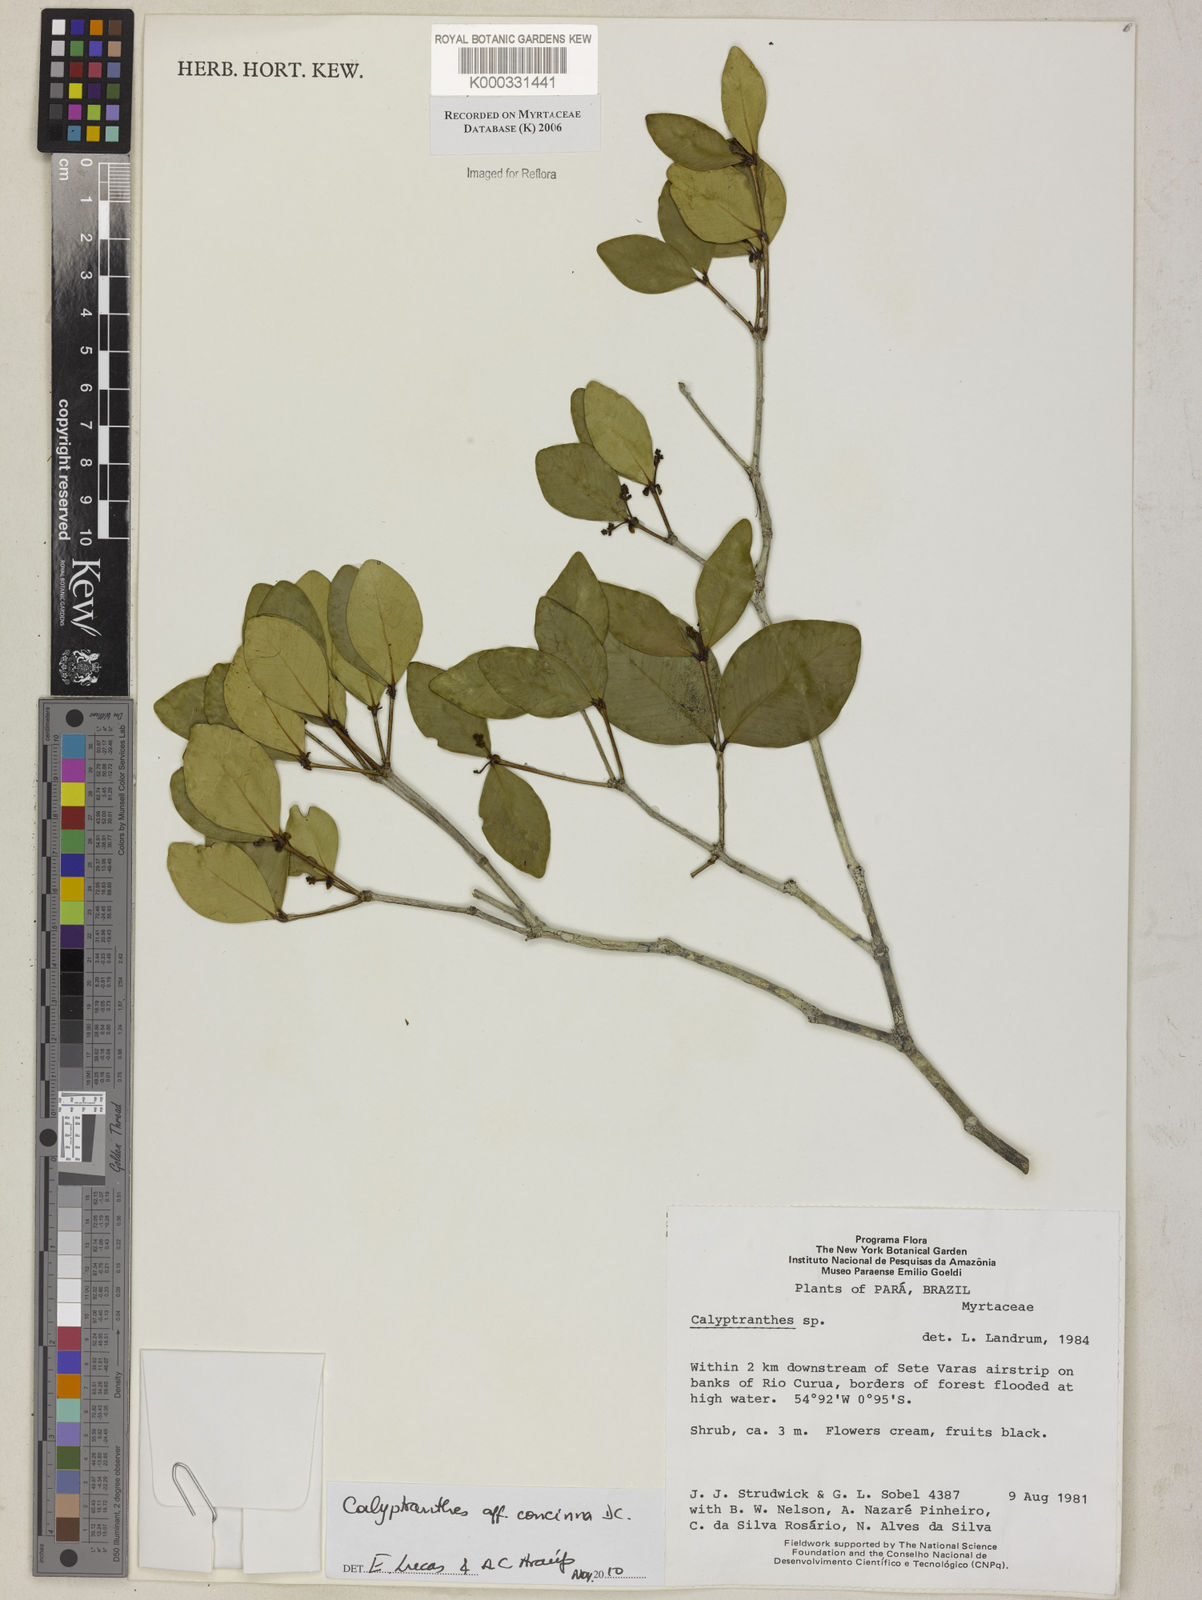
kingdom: Plantae
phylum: Tracheophyta
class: Magnoliopsida
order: Myrtales
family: Myrtaceae
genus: Calyptranthes
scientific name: Calyptranthes
